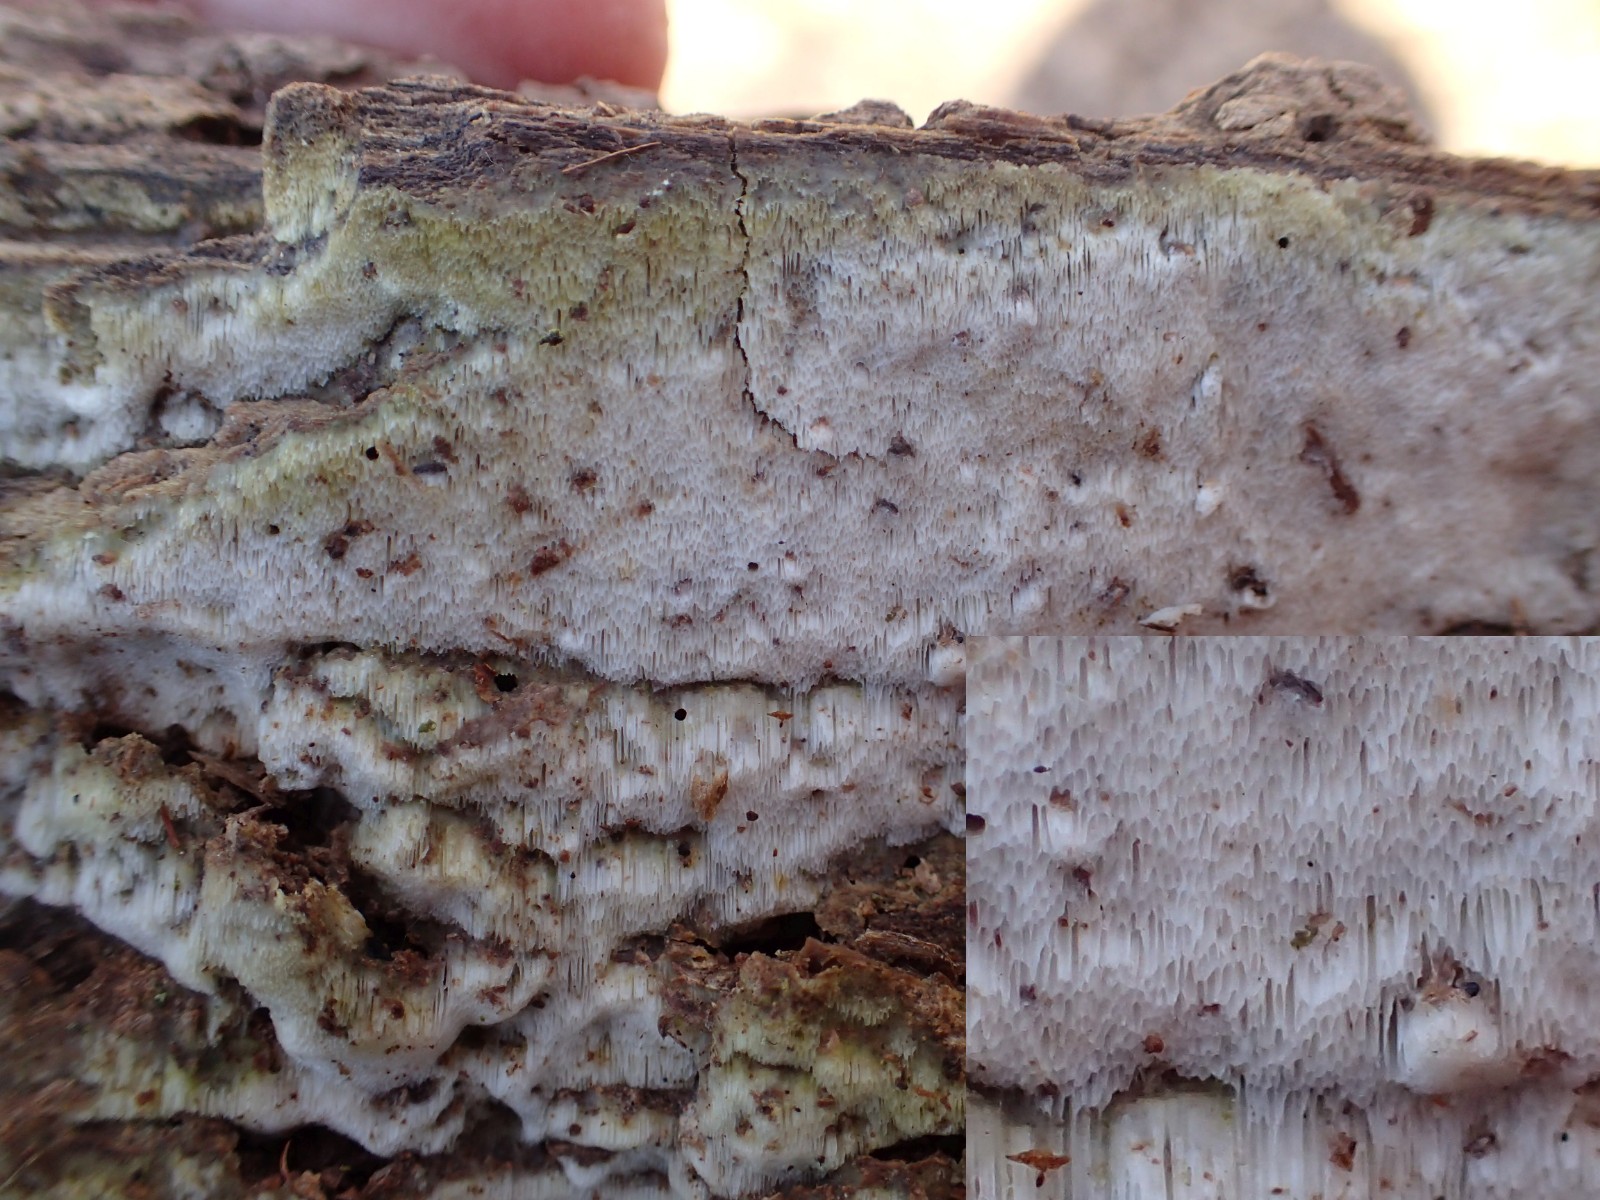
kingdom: Fungi
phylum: Basidiomycota
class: Agaricomycetes
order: Polyporales
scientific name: Polyporales
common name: poresvampordenen
